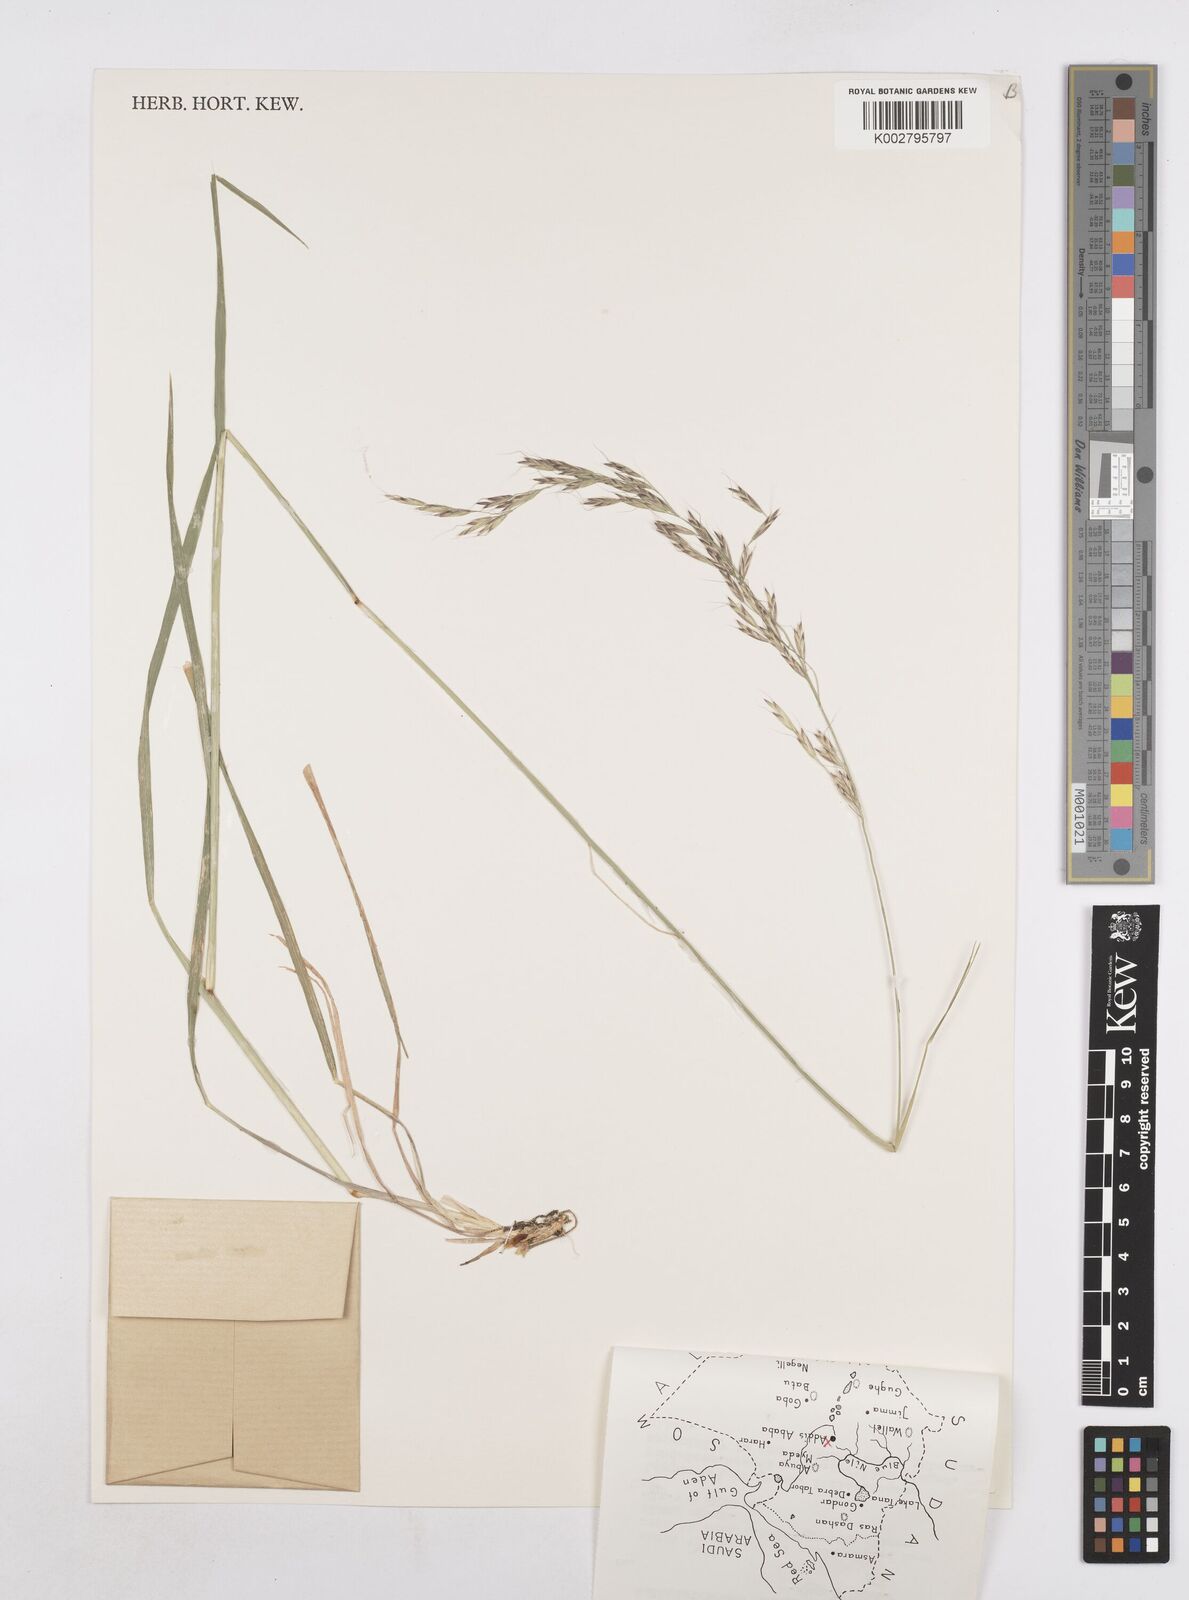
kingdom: Plantae
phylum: Tracheophyta
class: Liliopsida
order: Poales
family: Poaceae
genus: Trisetopsis
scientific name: Trisetopsis elongata
